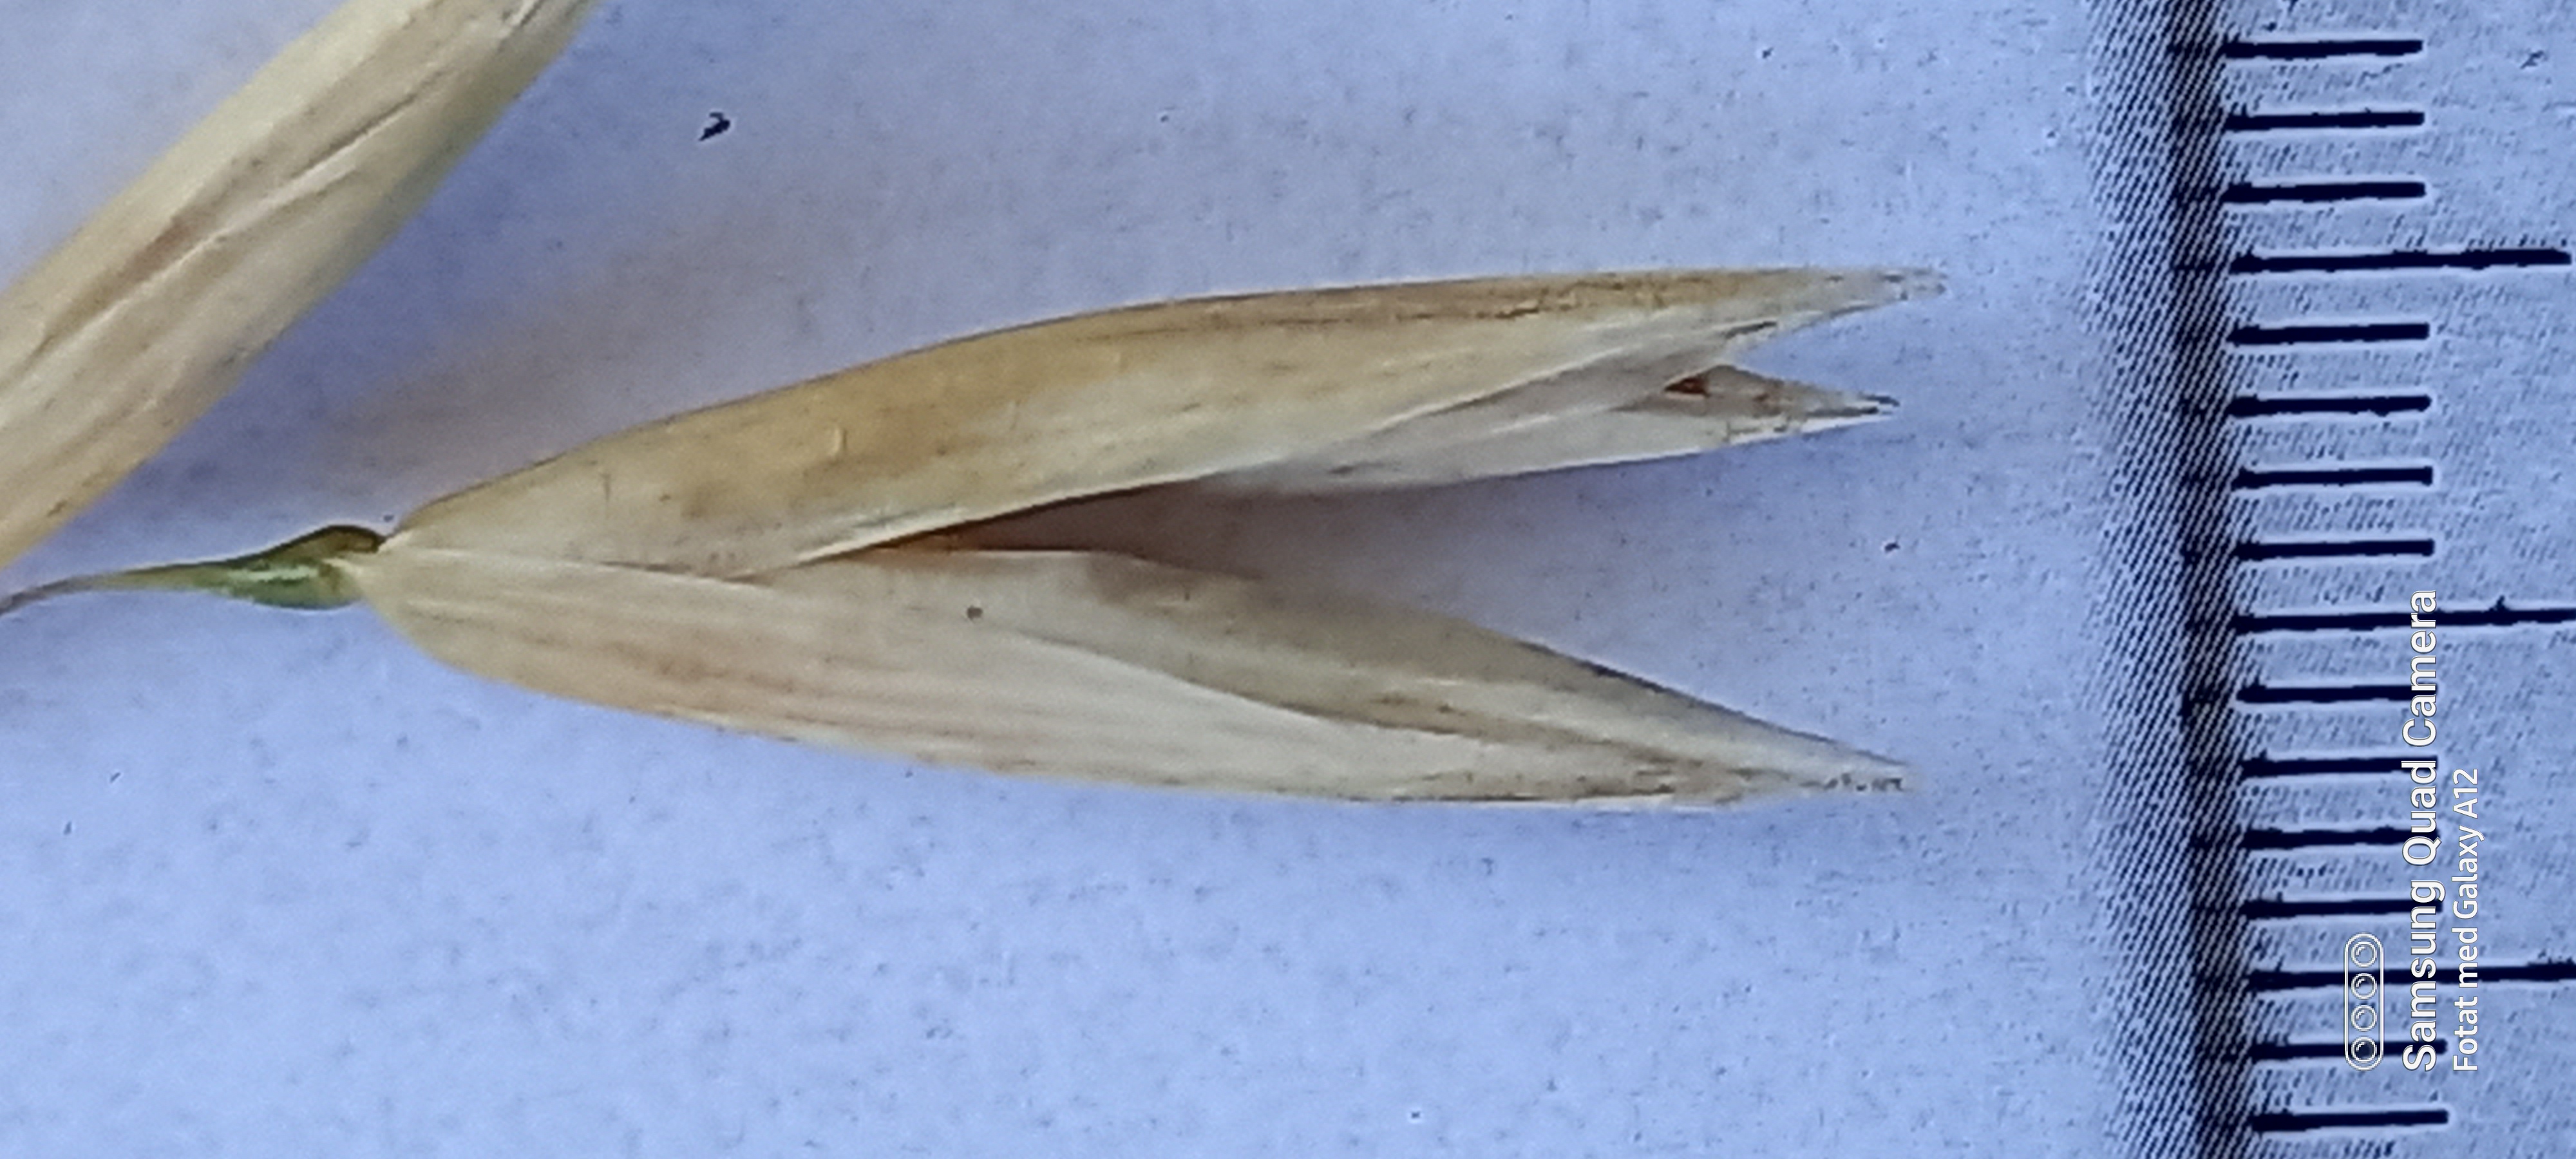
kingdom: Plantae
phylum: Tracheophyta
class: Liliopsida
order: Poales
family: Poaceae
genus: Avena
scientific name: Avena sativa
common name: Oat
